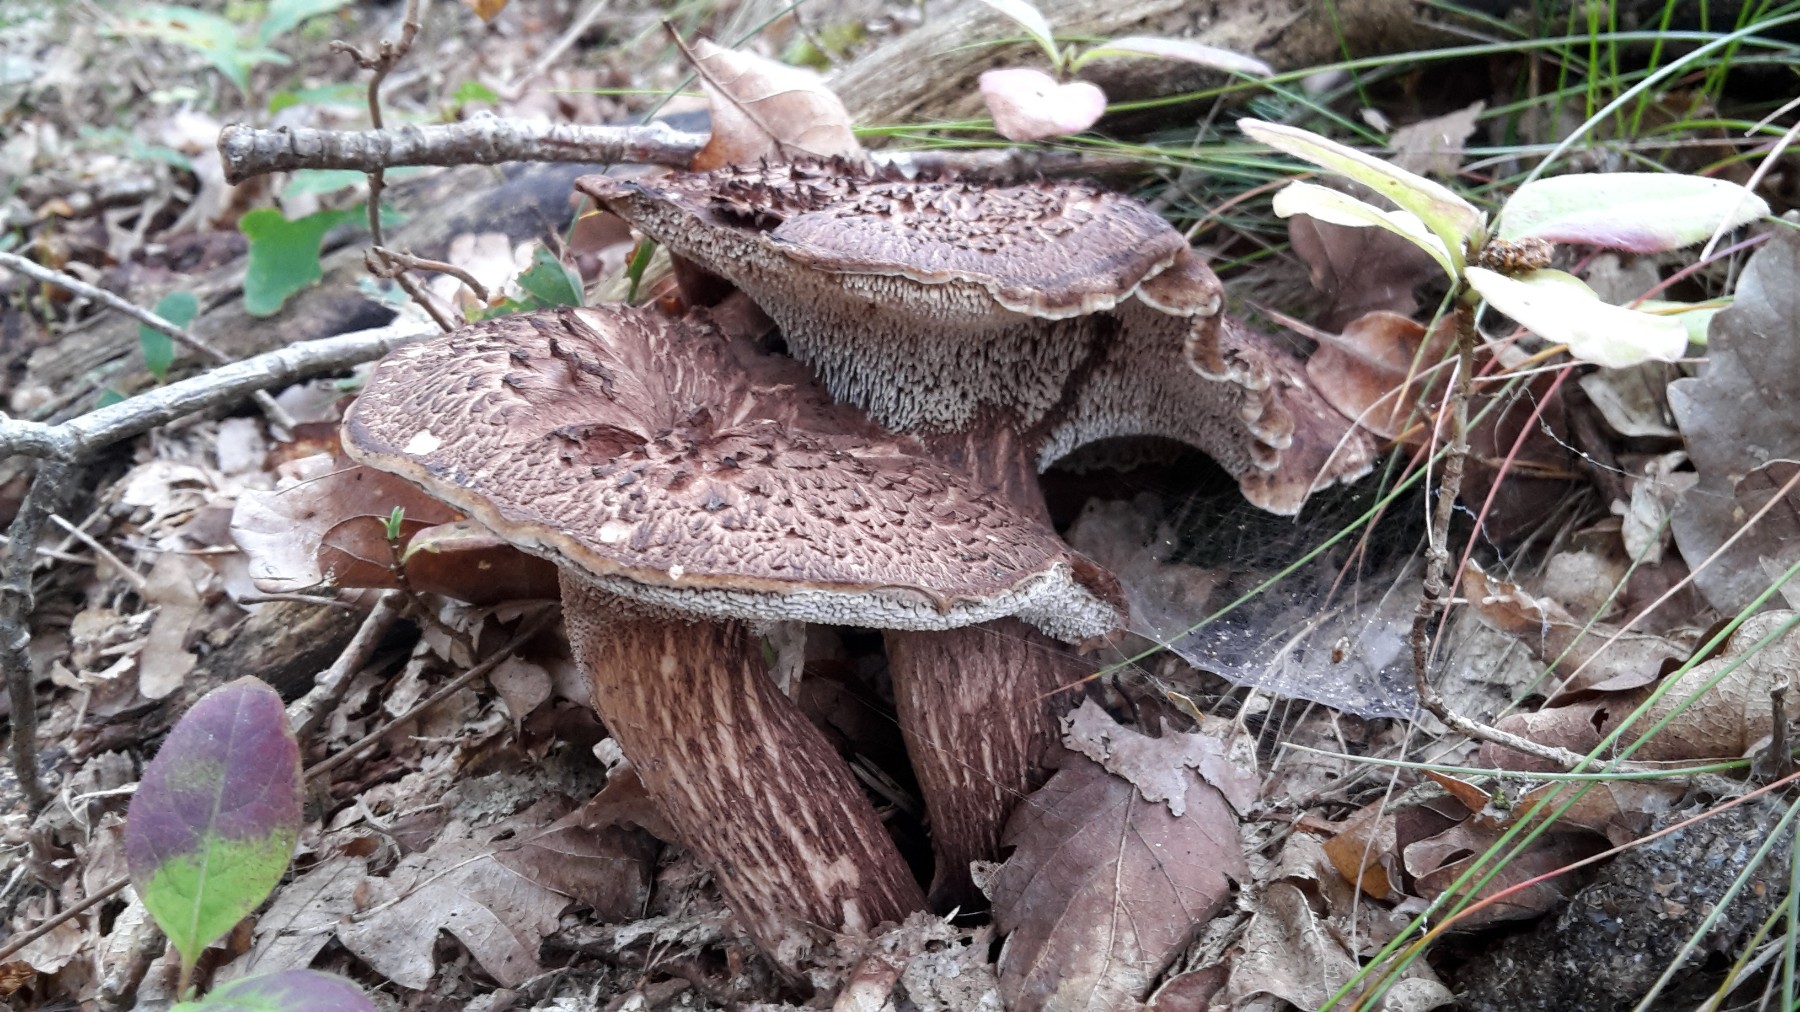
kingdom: Fungi
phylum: Basidiomycota
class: Agaricomycetes
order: Thelephorales
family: Bankeraceae
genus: Hydnellum
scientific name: Hydnellum fagiscabrosum
